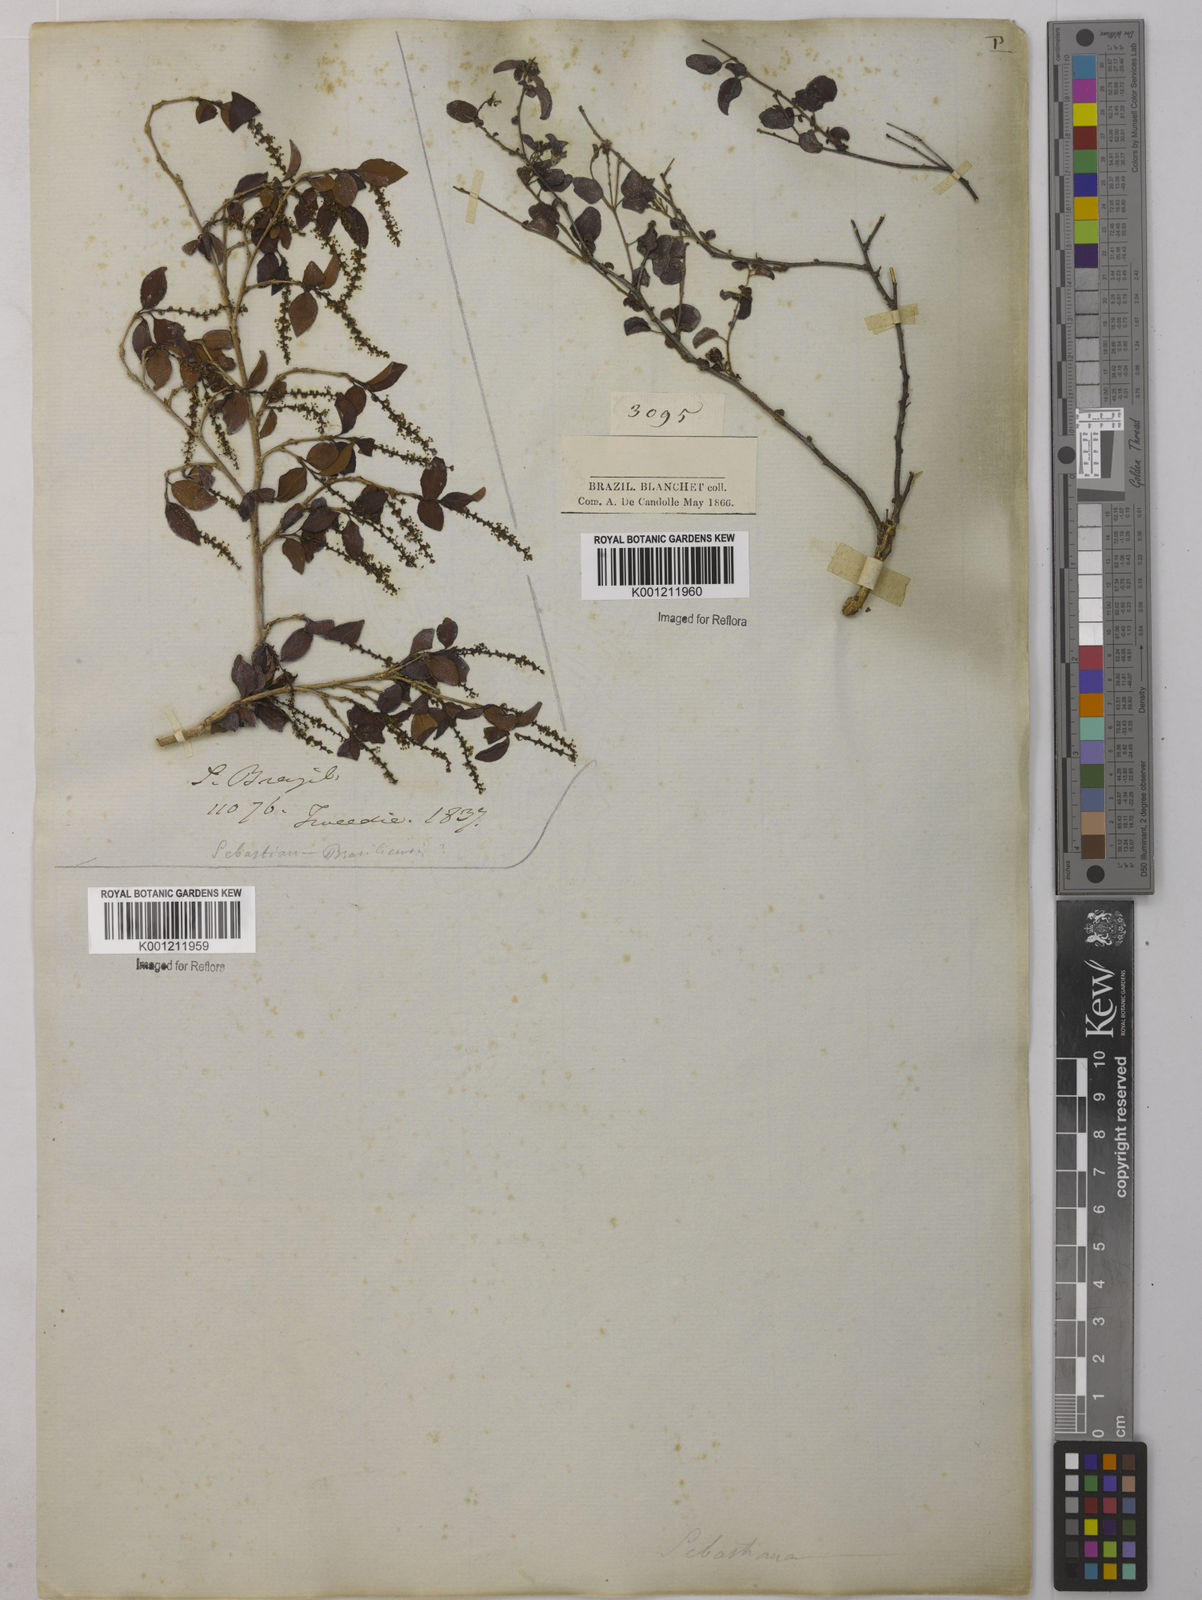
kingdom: Plantae
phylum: Tracheophyta
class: Magnoliopsida
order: Malpighiales
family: Euphorbiaceae
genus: Sebastiania
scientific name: Sebastiania
